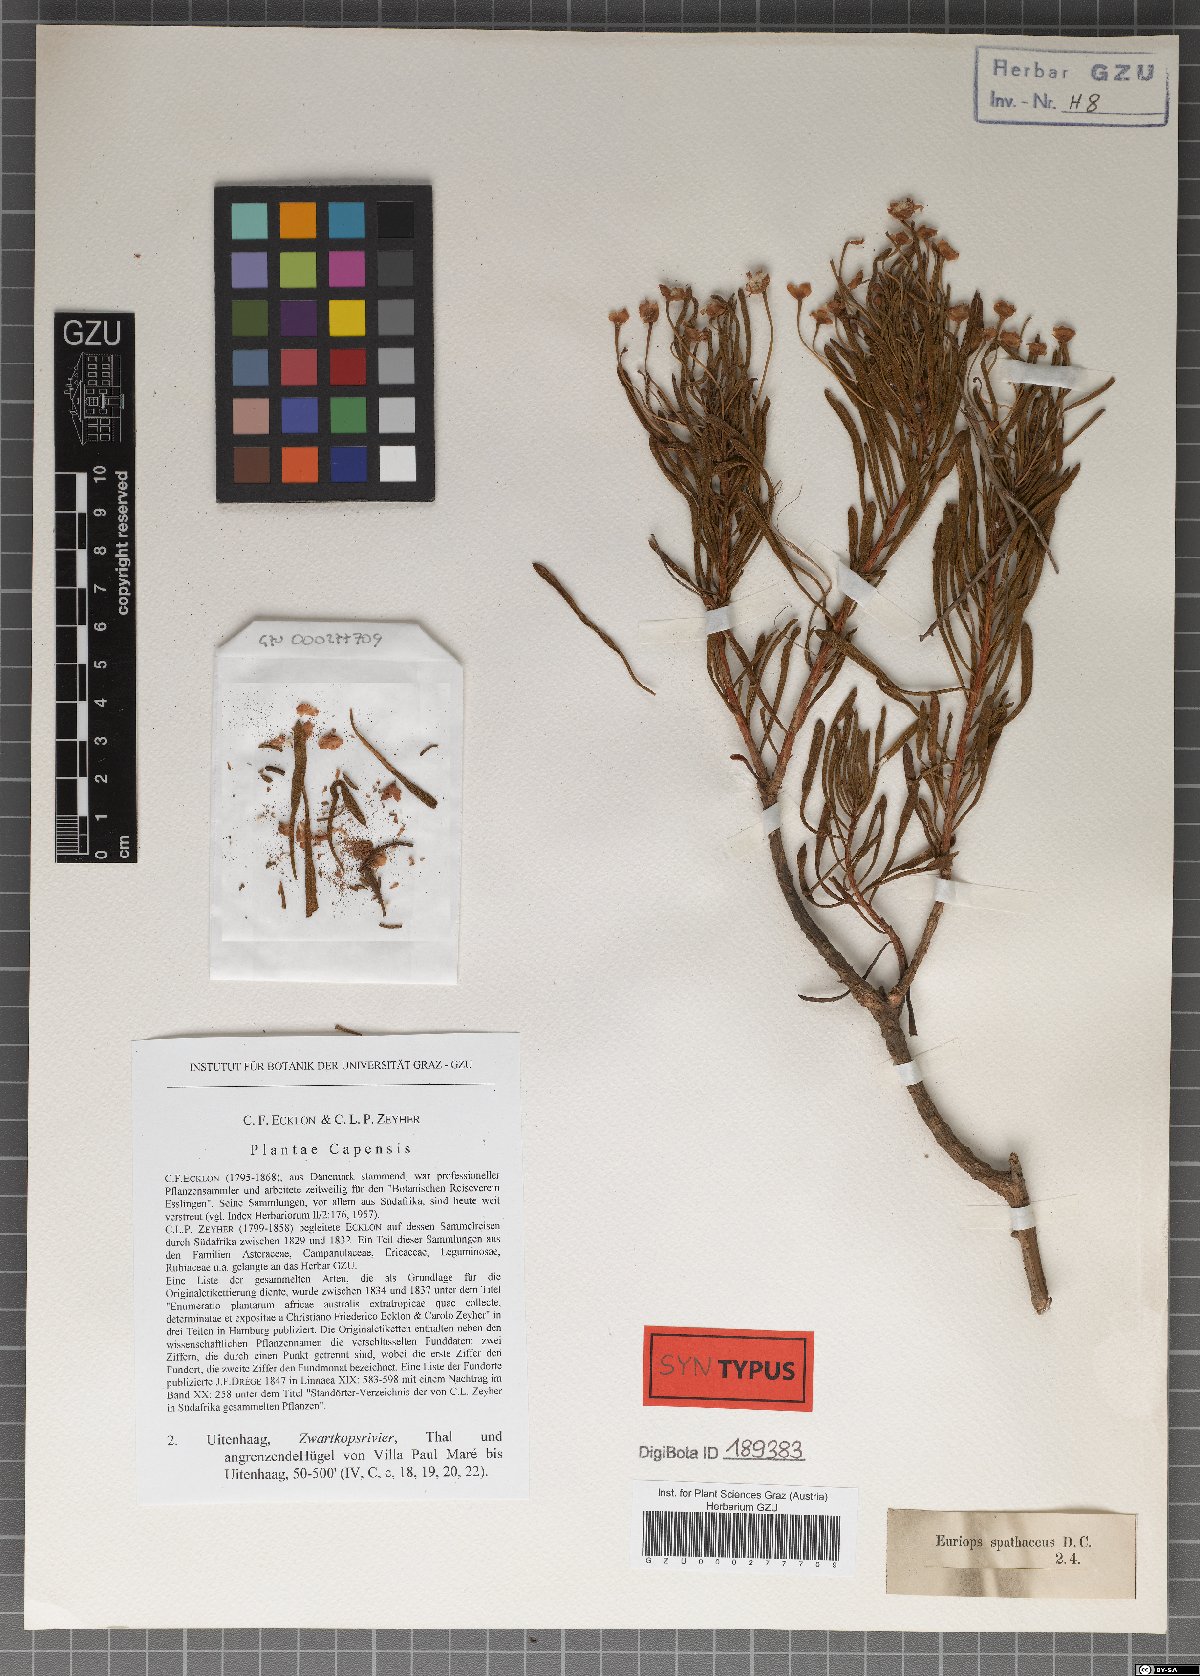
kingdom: Plantae
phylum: Tracheophyta
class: Magnoliopsida
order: Asterales
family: Asteraceae
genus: Euryops
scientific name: Euryops spathaceus
